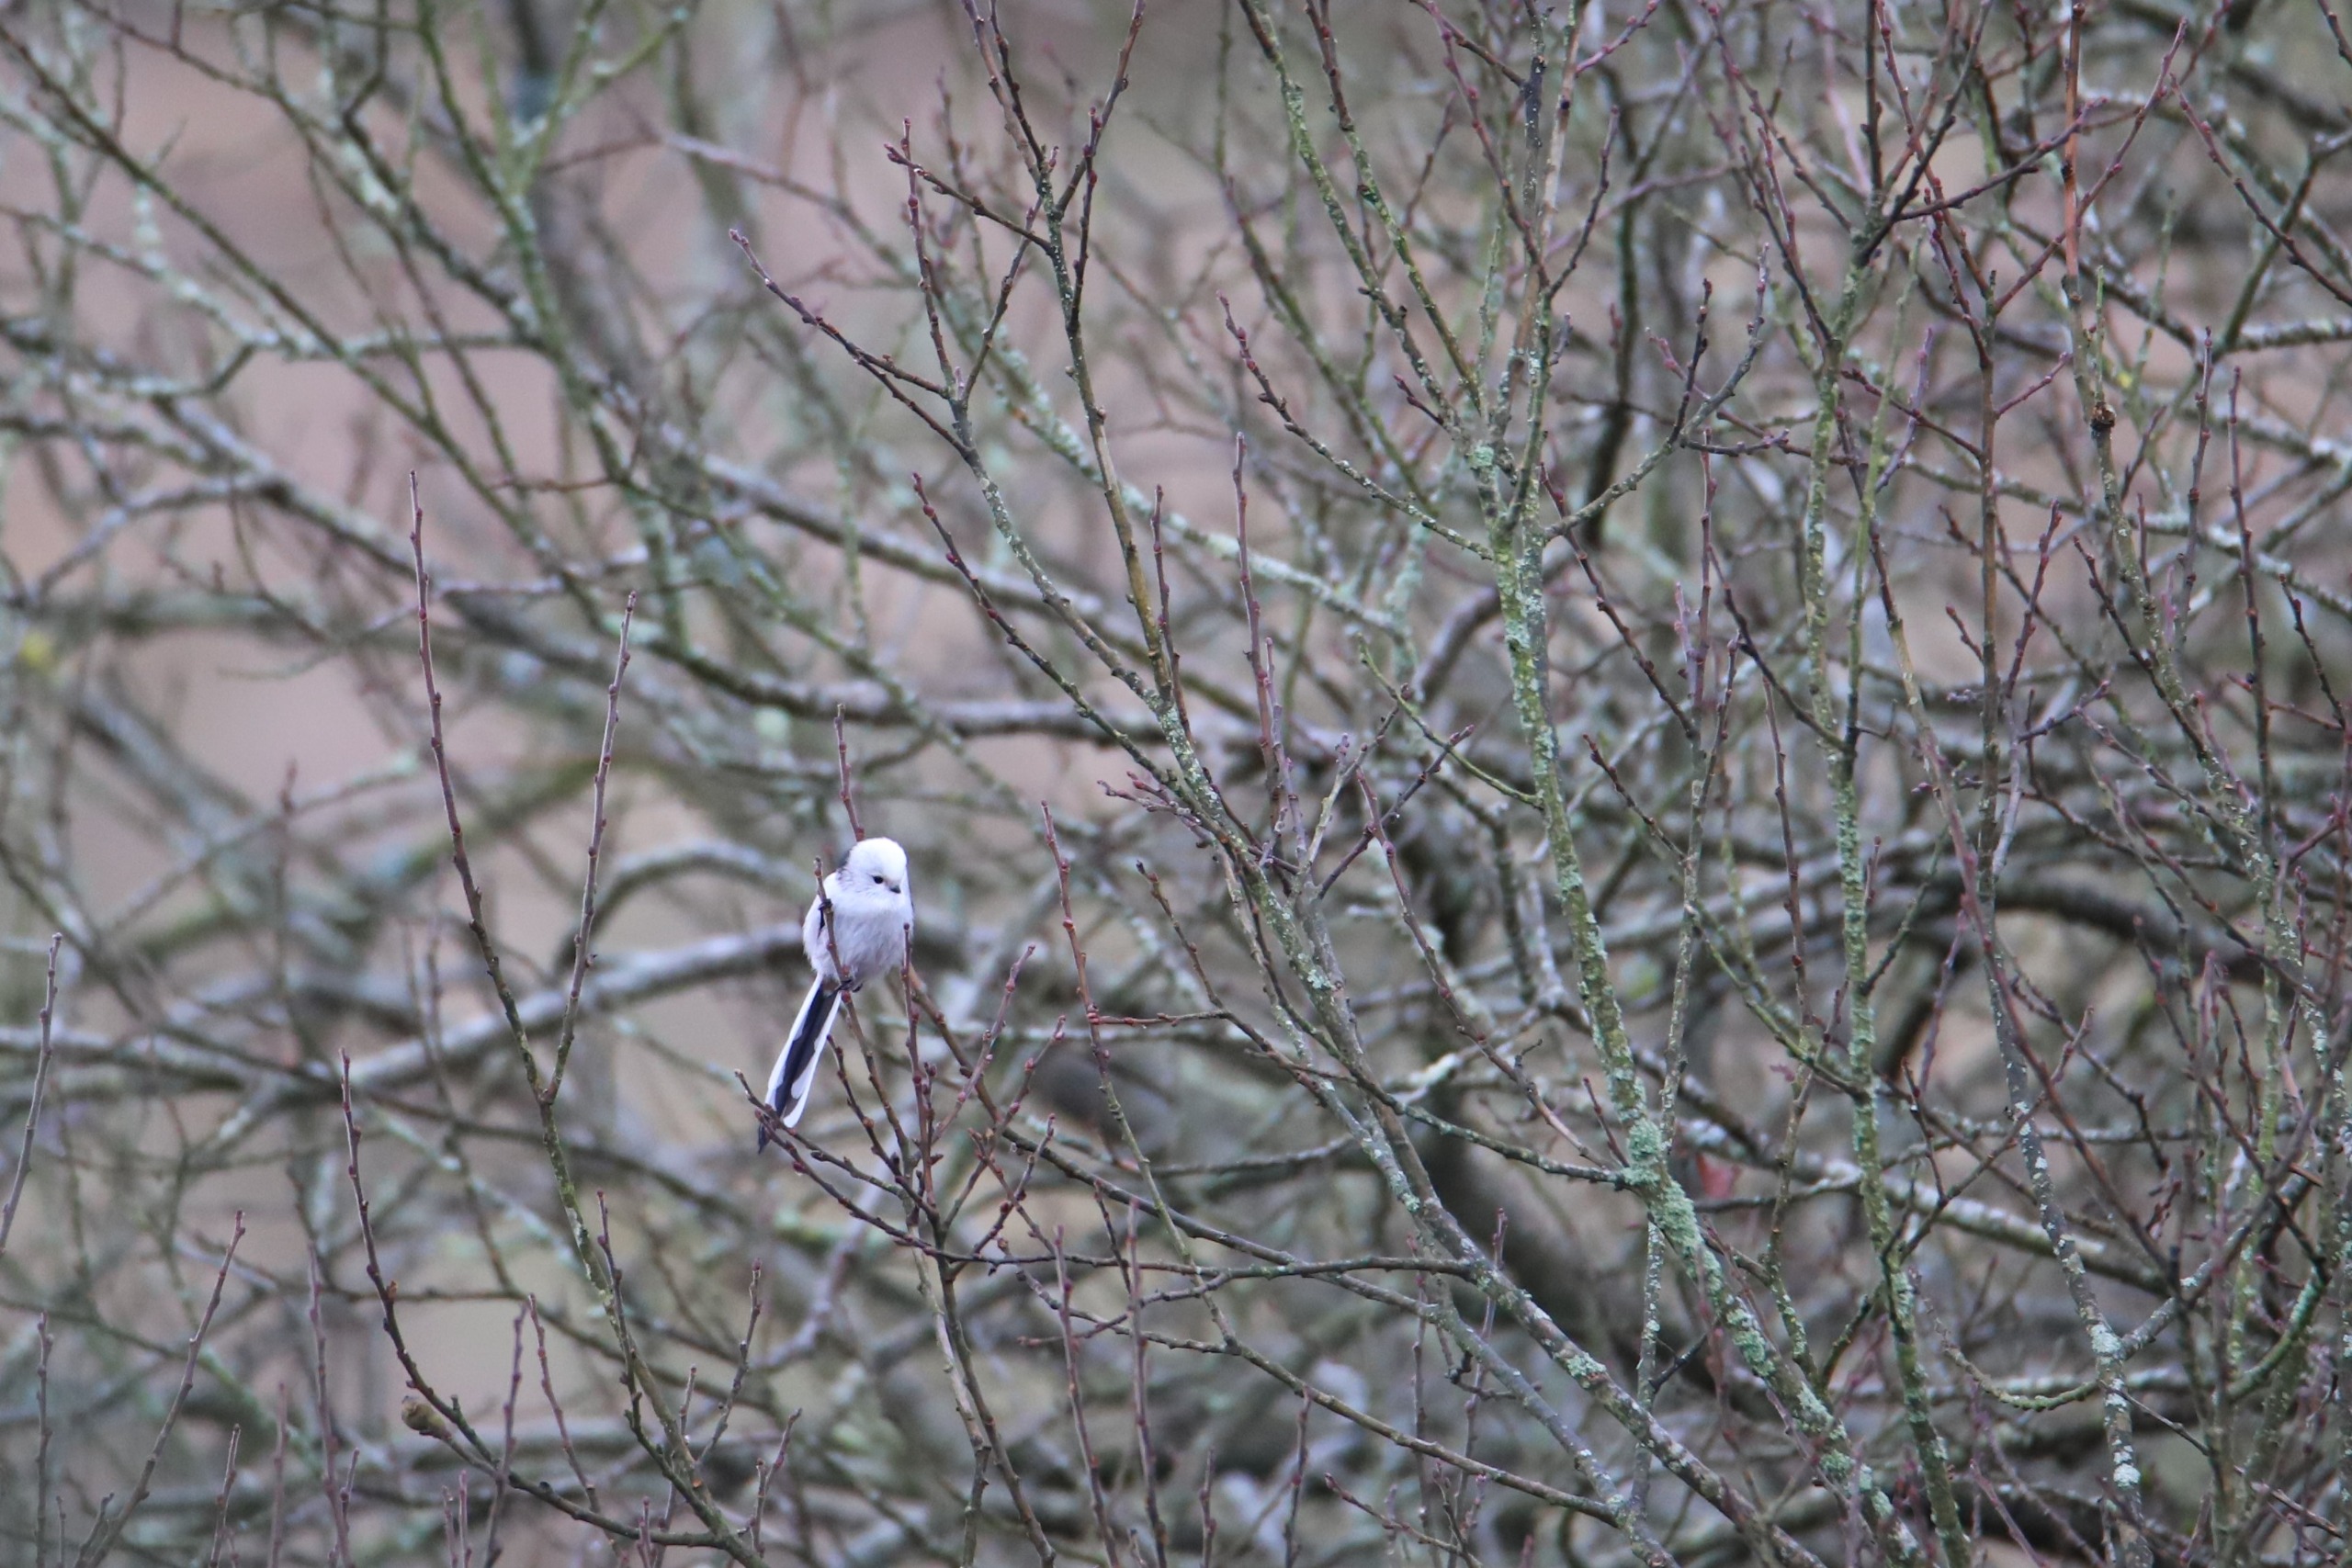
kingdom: Animalia
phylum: Chordata
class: Aves
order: Passeriformes
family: Aegithalidae
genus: Aegithalos
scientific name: Aegithalos caudatus
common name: Halemejse
